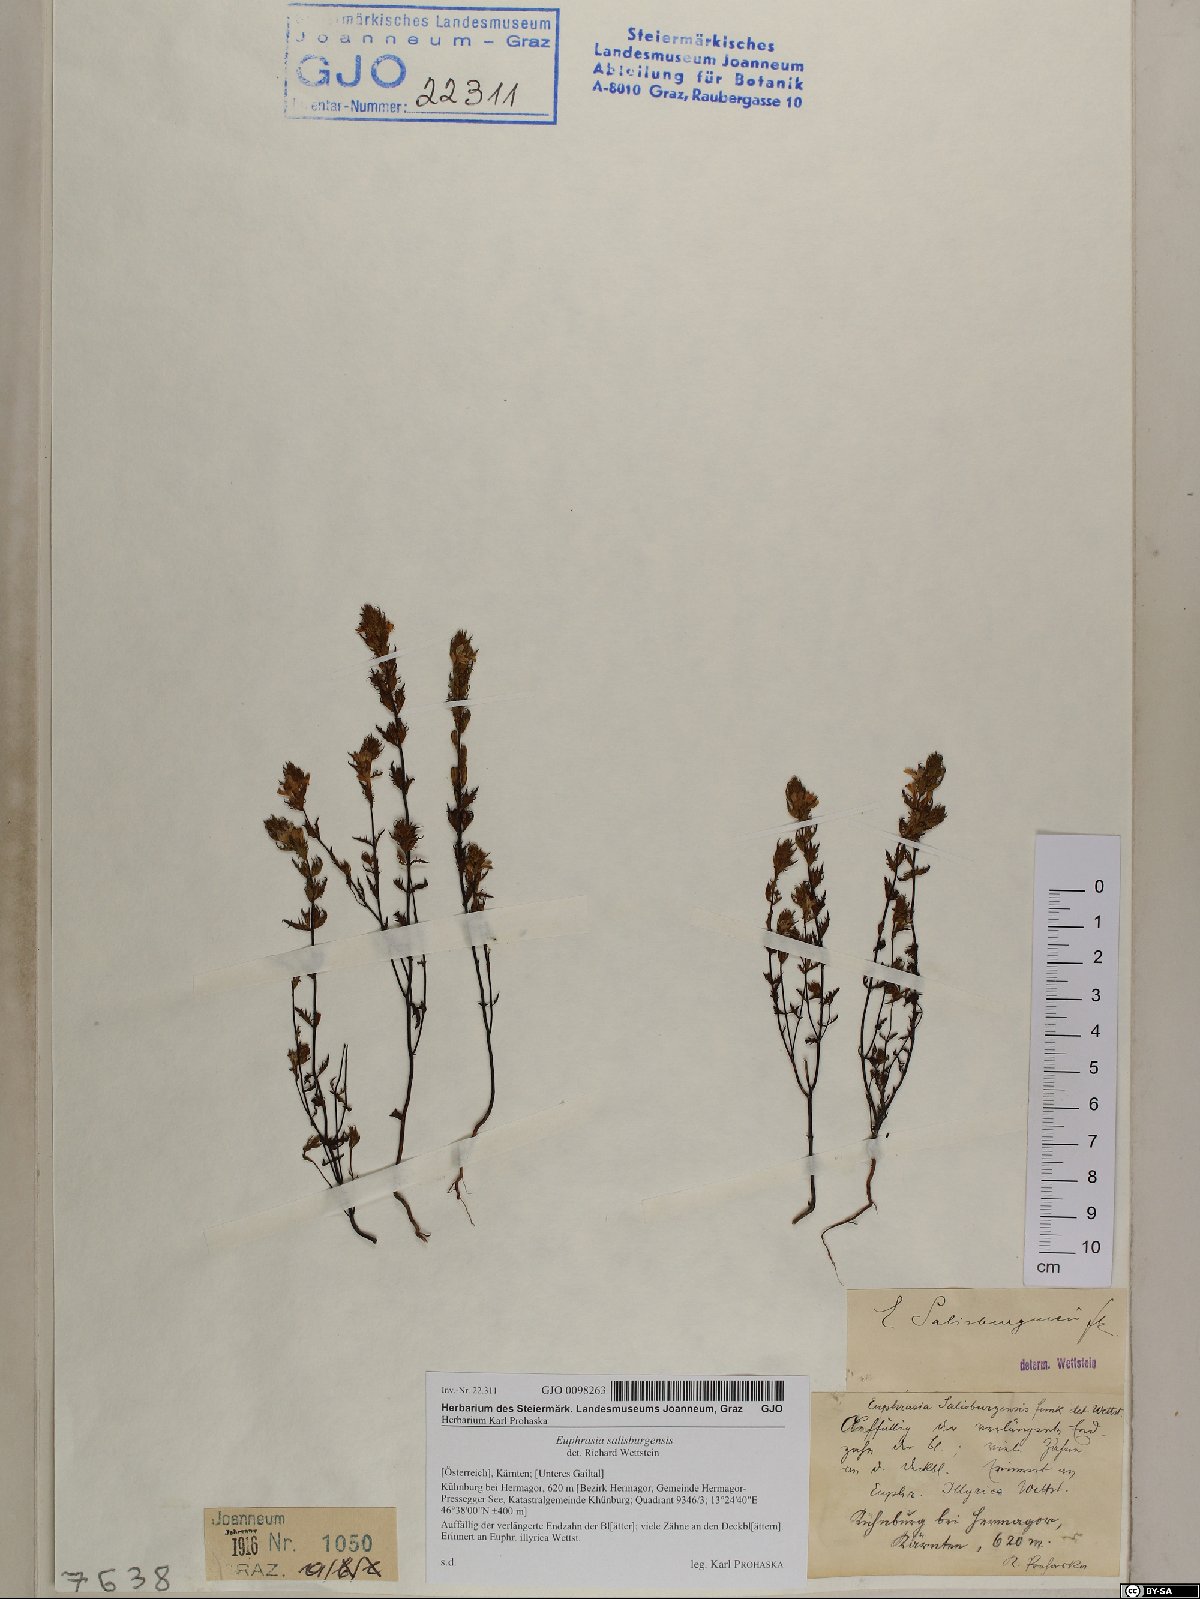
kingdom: Plantae
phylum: Tracheophyta
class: Magnoliopsida
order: Lamiales
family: Orobanchaceae
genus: Euphrasia
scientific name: Euphrasia salisburgensis
